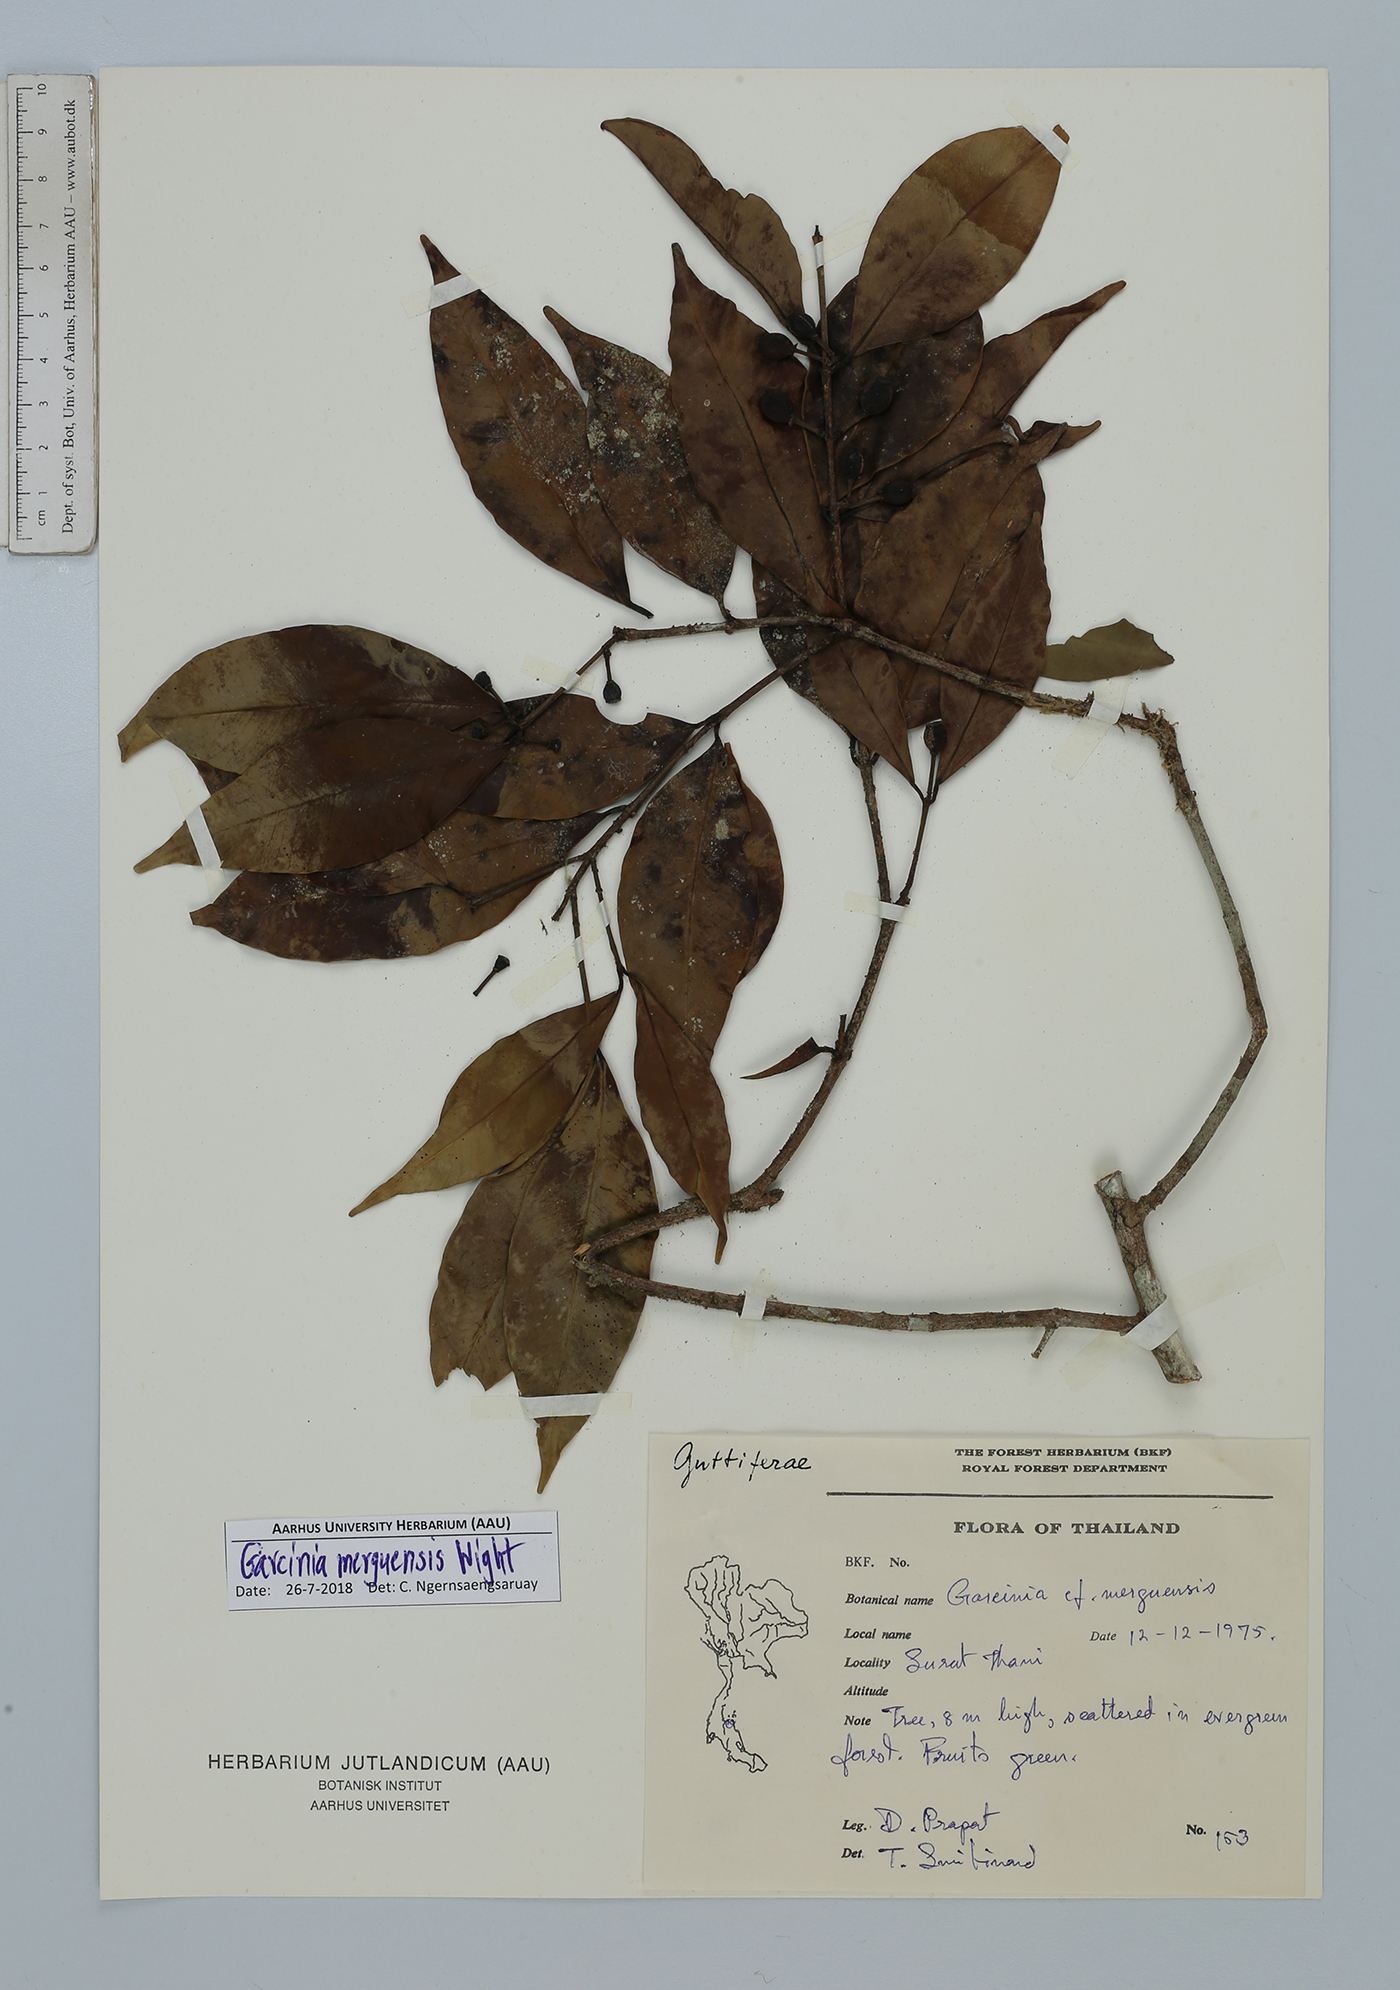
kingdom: Plantae
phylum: Tracheophyta
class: Magnoliopsida
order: Malpighiales
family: Clusiaceae
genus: Garcinia
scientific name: Garcinia merguensis
